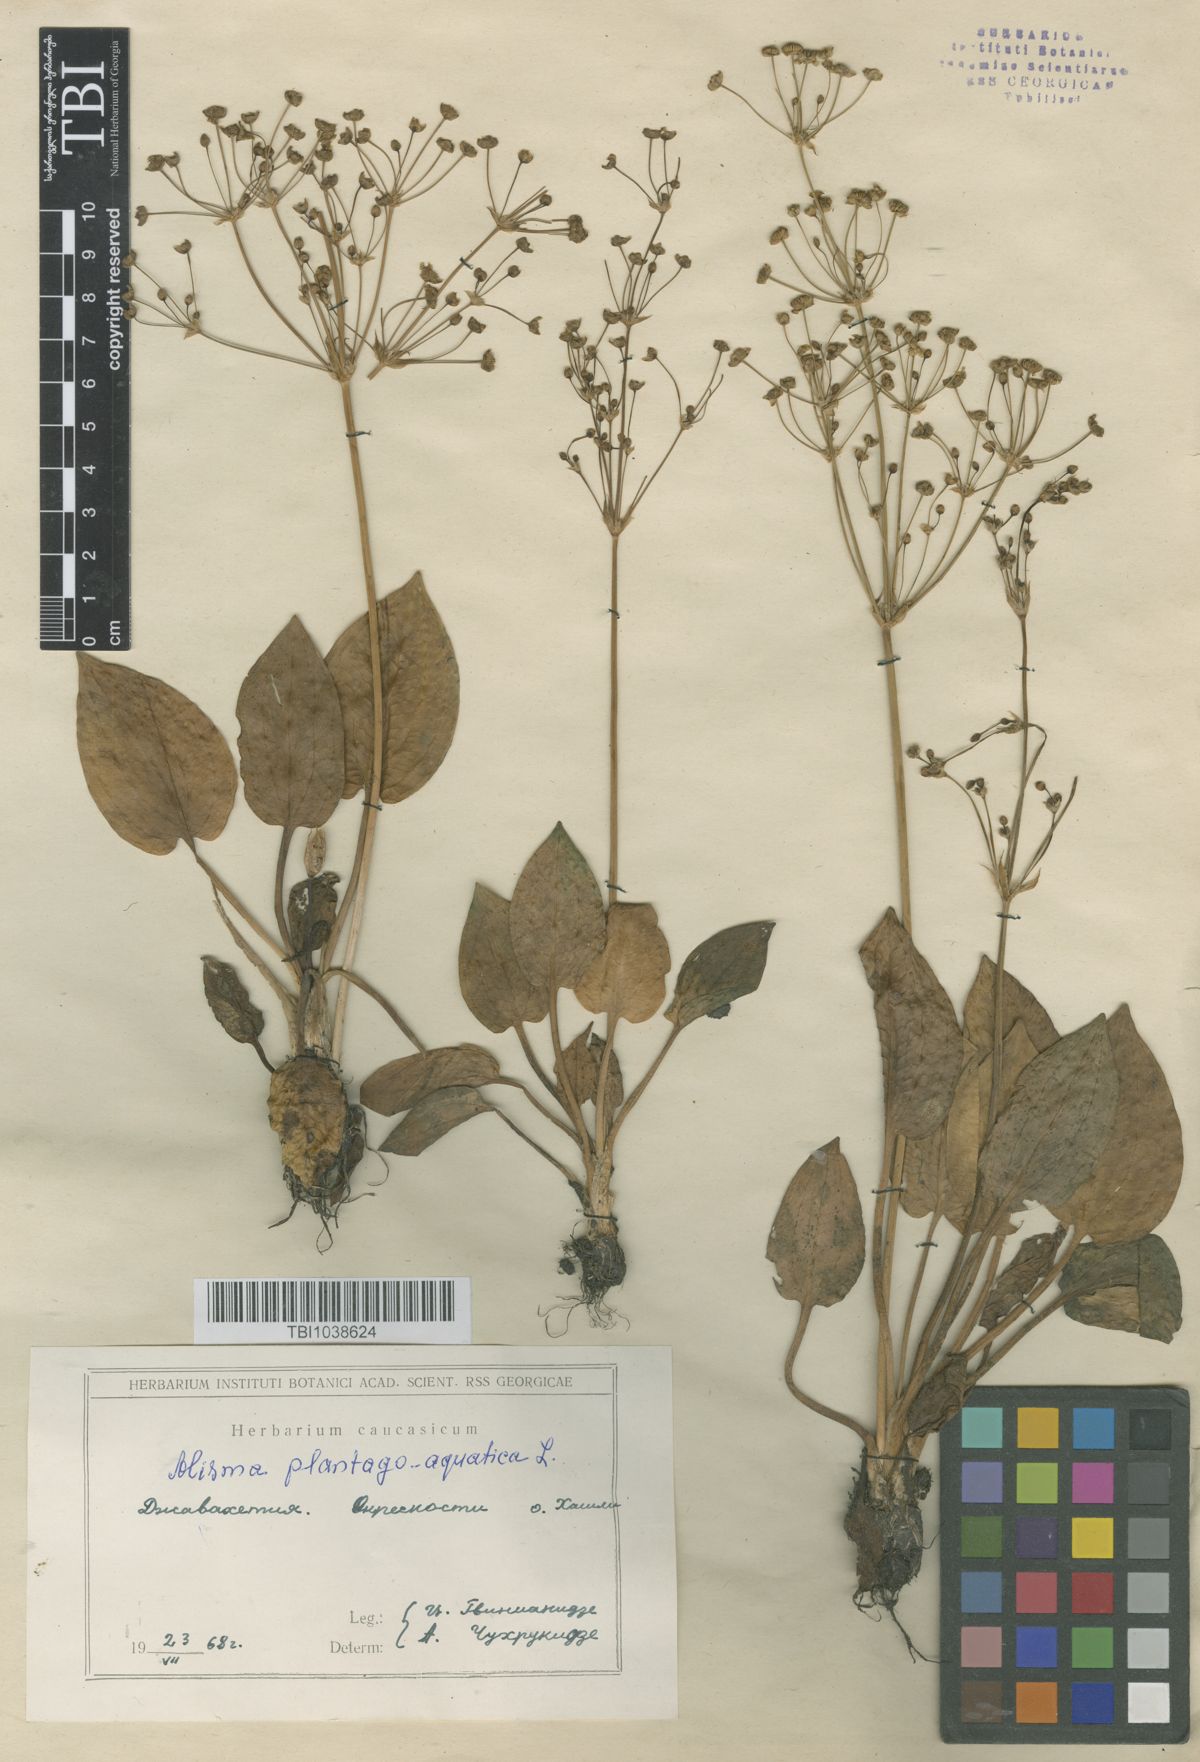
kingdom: Plantae
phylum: Tracheophyta
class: Liliopsida
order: Alismatales
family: Alismataceae
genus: Alisma
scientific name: Alisma plantago-aquatica
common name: Water-plantain
